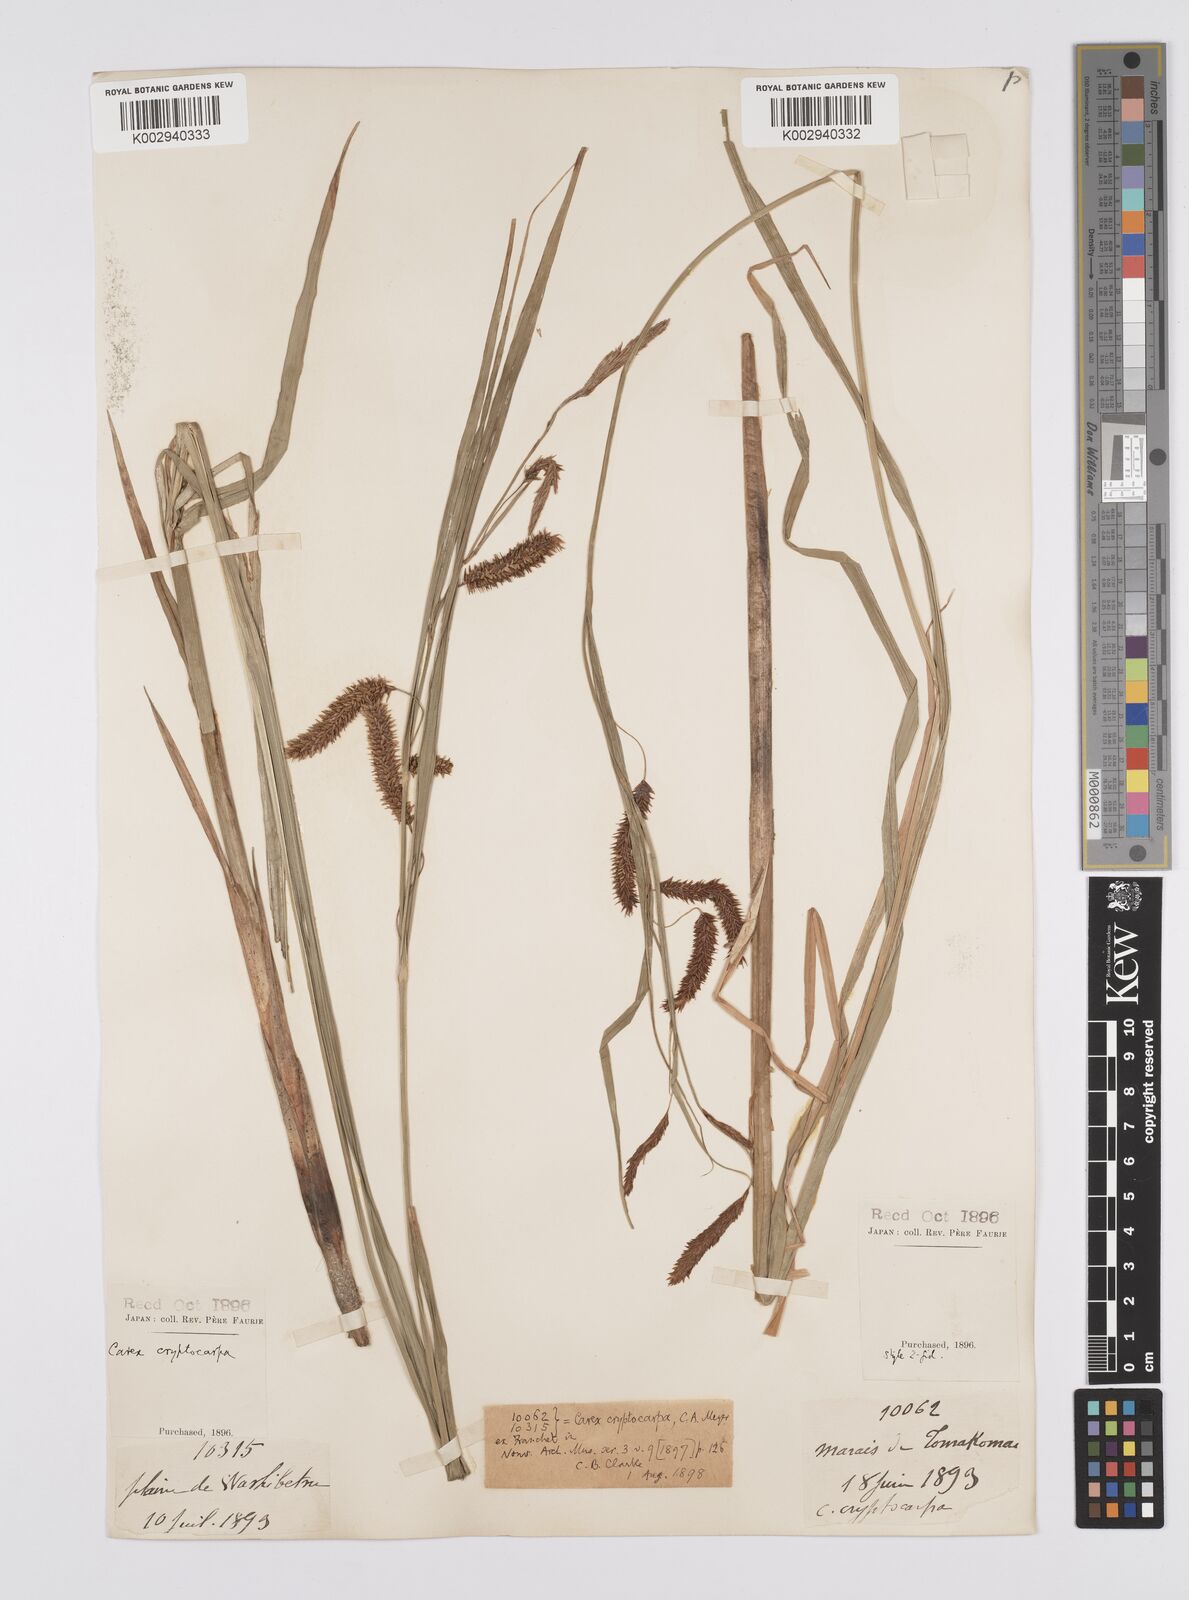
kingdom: Plantae
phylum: Tracheophyta
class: Liliopsida
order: Poales
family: Cyperaceae
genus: Carex
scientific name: Carex lyngbyei
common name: Lyngbye's sedge
